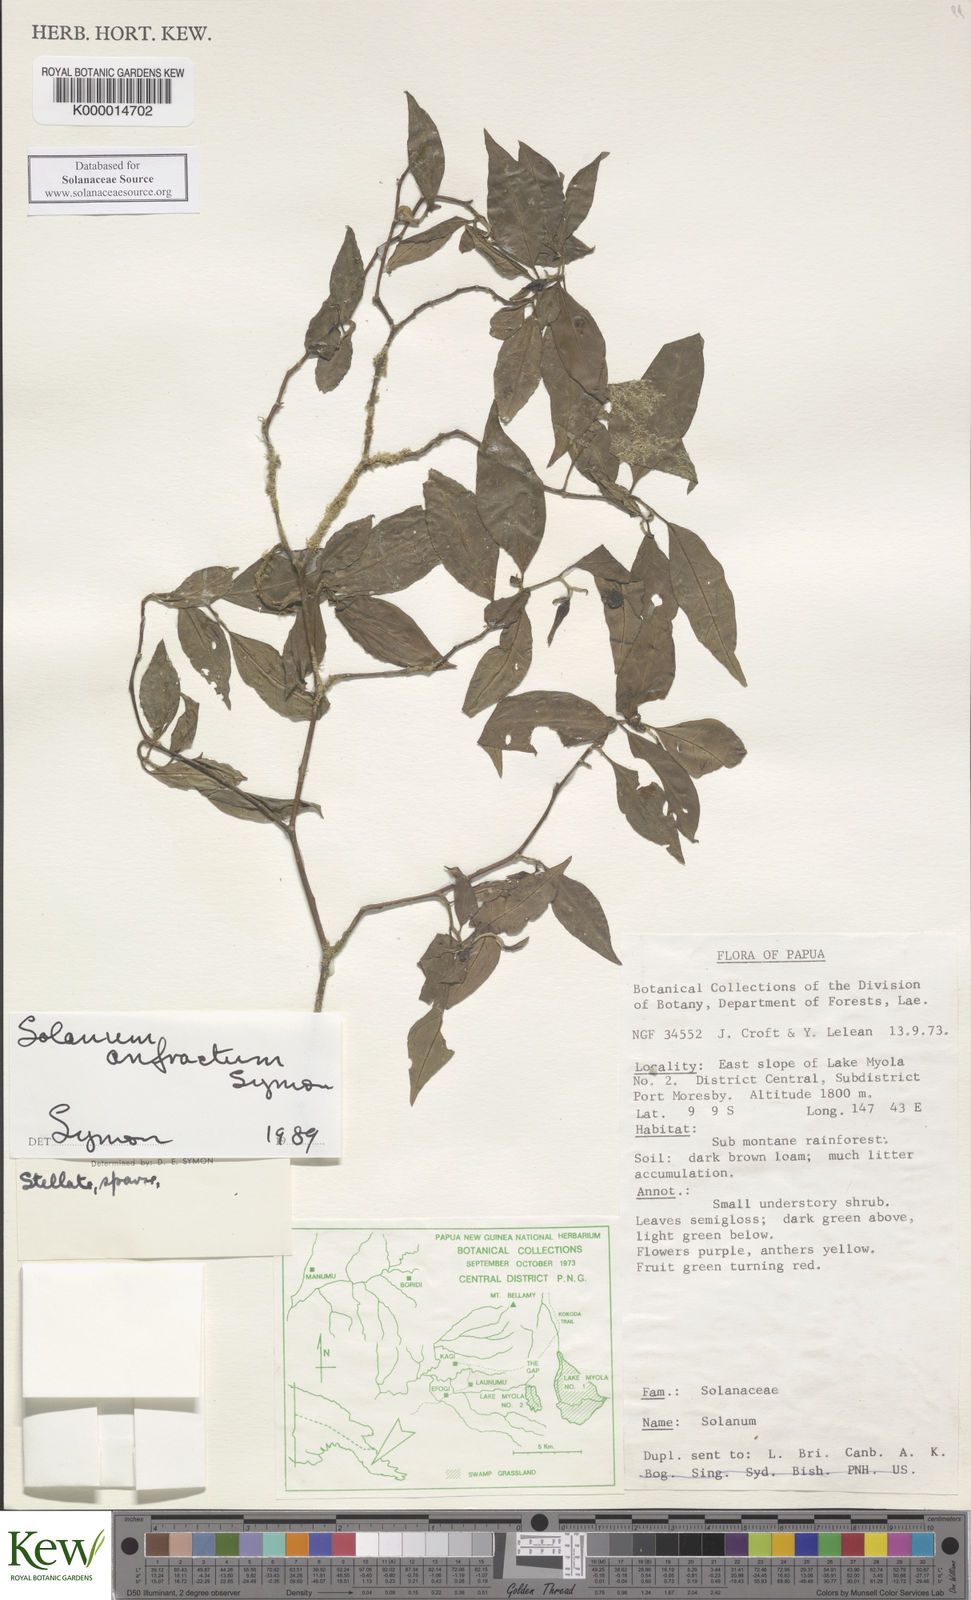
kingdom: Plantae
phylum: Tracheophyta
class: Magnoliopsida
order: Solanales
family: Solanaceae
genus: Solanum
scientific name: Solanum anfractum
